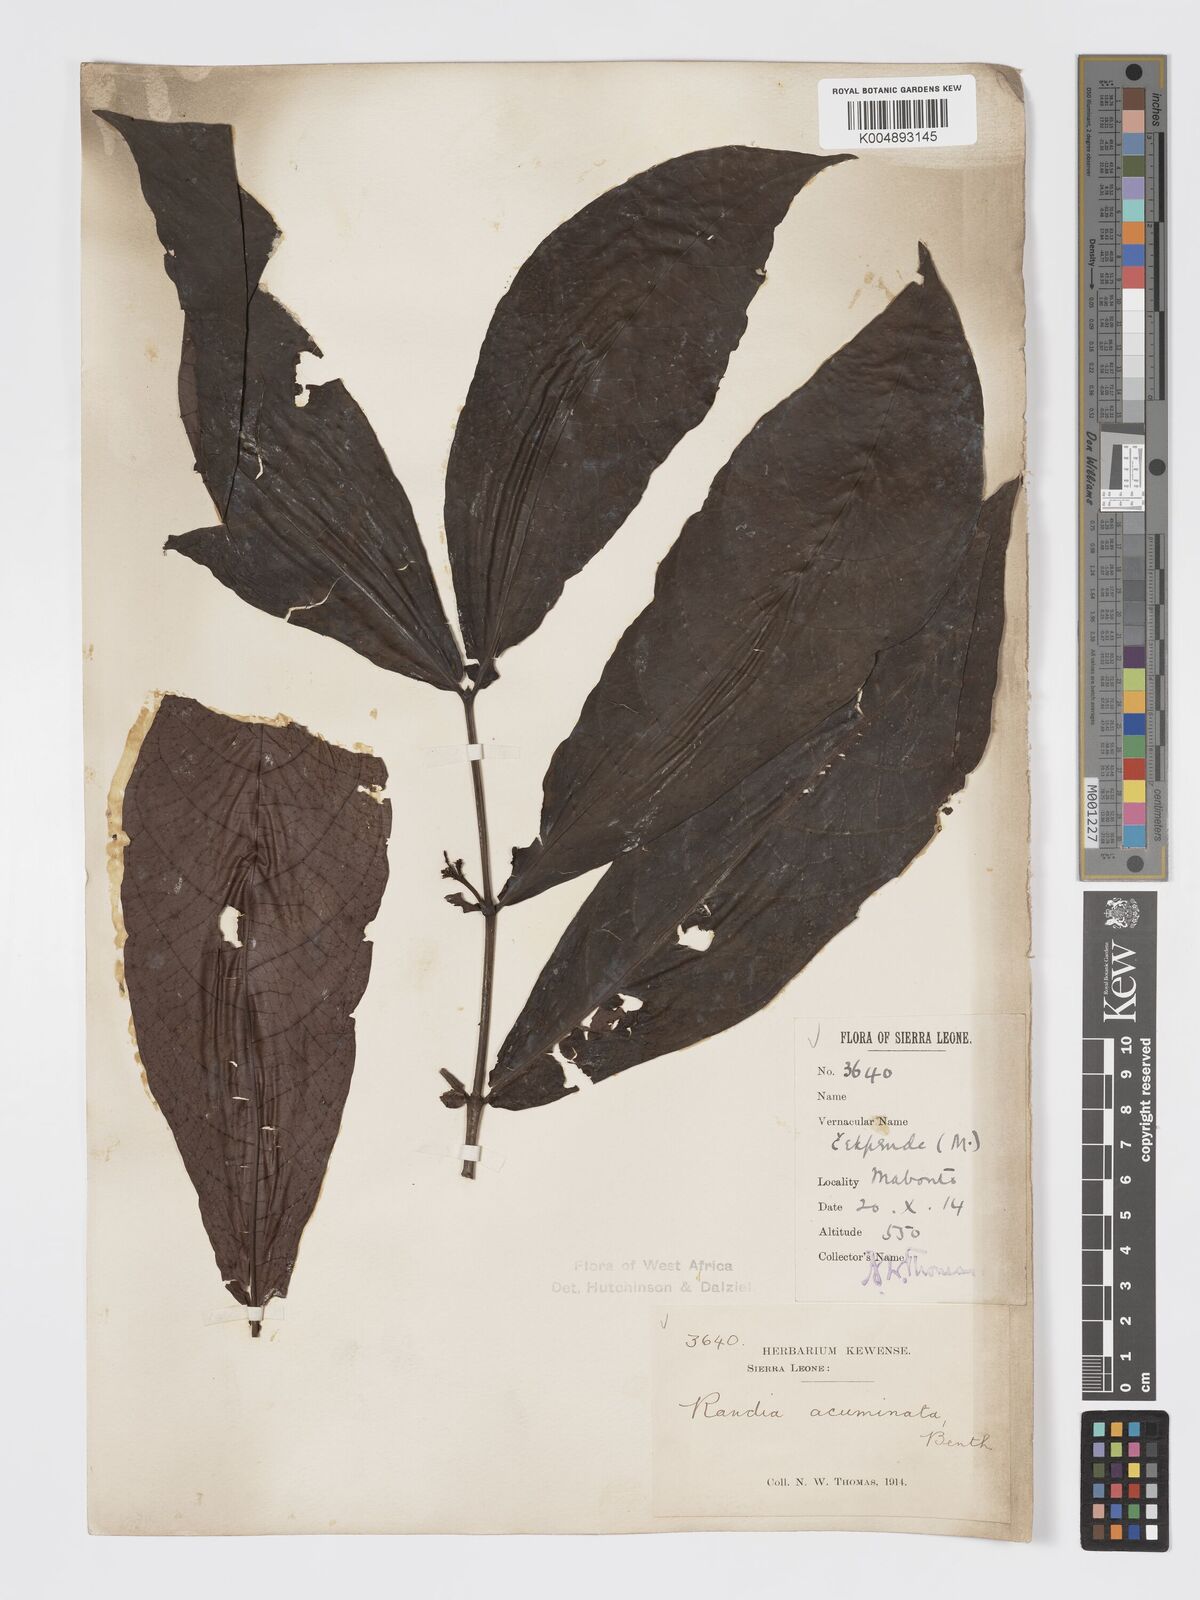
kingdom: Plantae
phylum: Tracheophyta
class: Magnoliopsida
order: Gentianales
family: Rubiaceae
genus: Massularia
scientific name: Massularia acuminata
